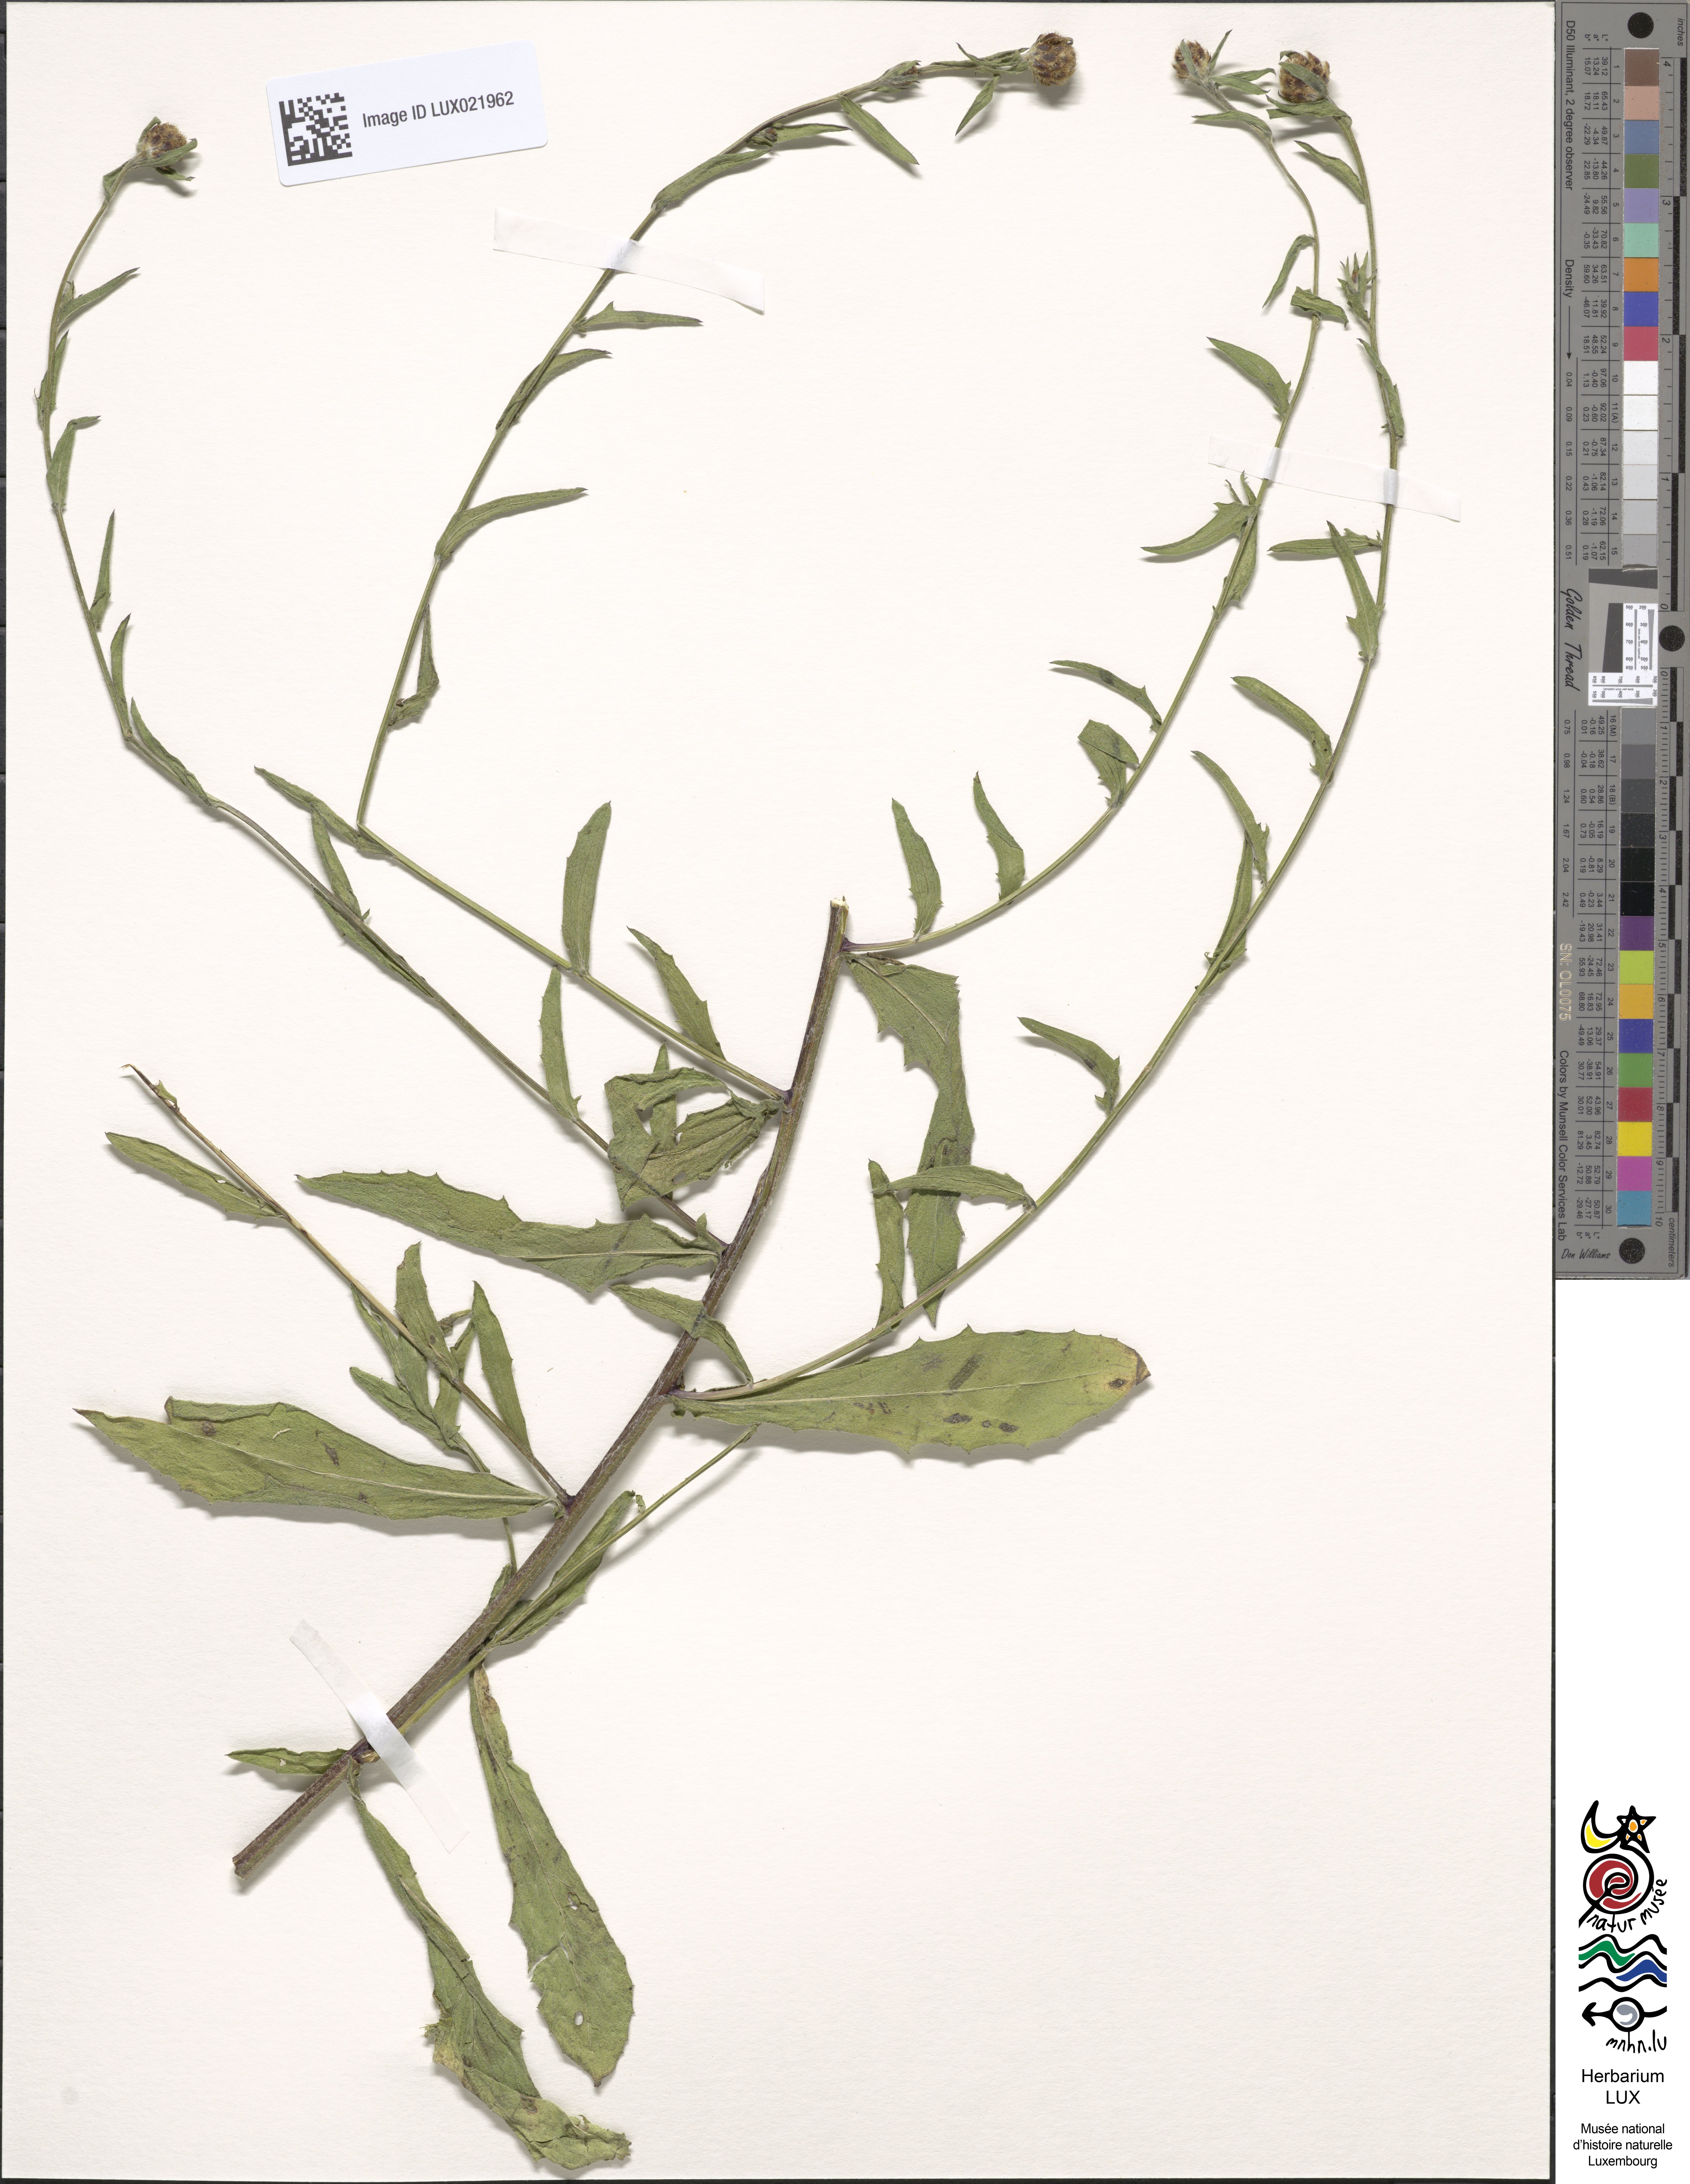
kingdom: Plantae
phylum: Tracheophyta
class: Magnoliopsida
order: Asterales
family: Asteraceae
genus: Centaurea
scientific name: Centaurea jacea
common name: Brown knapweed
